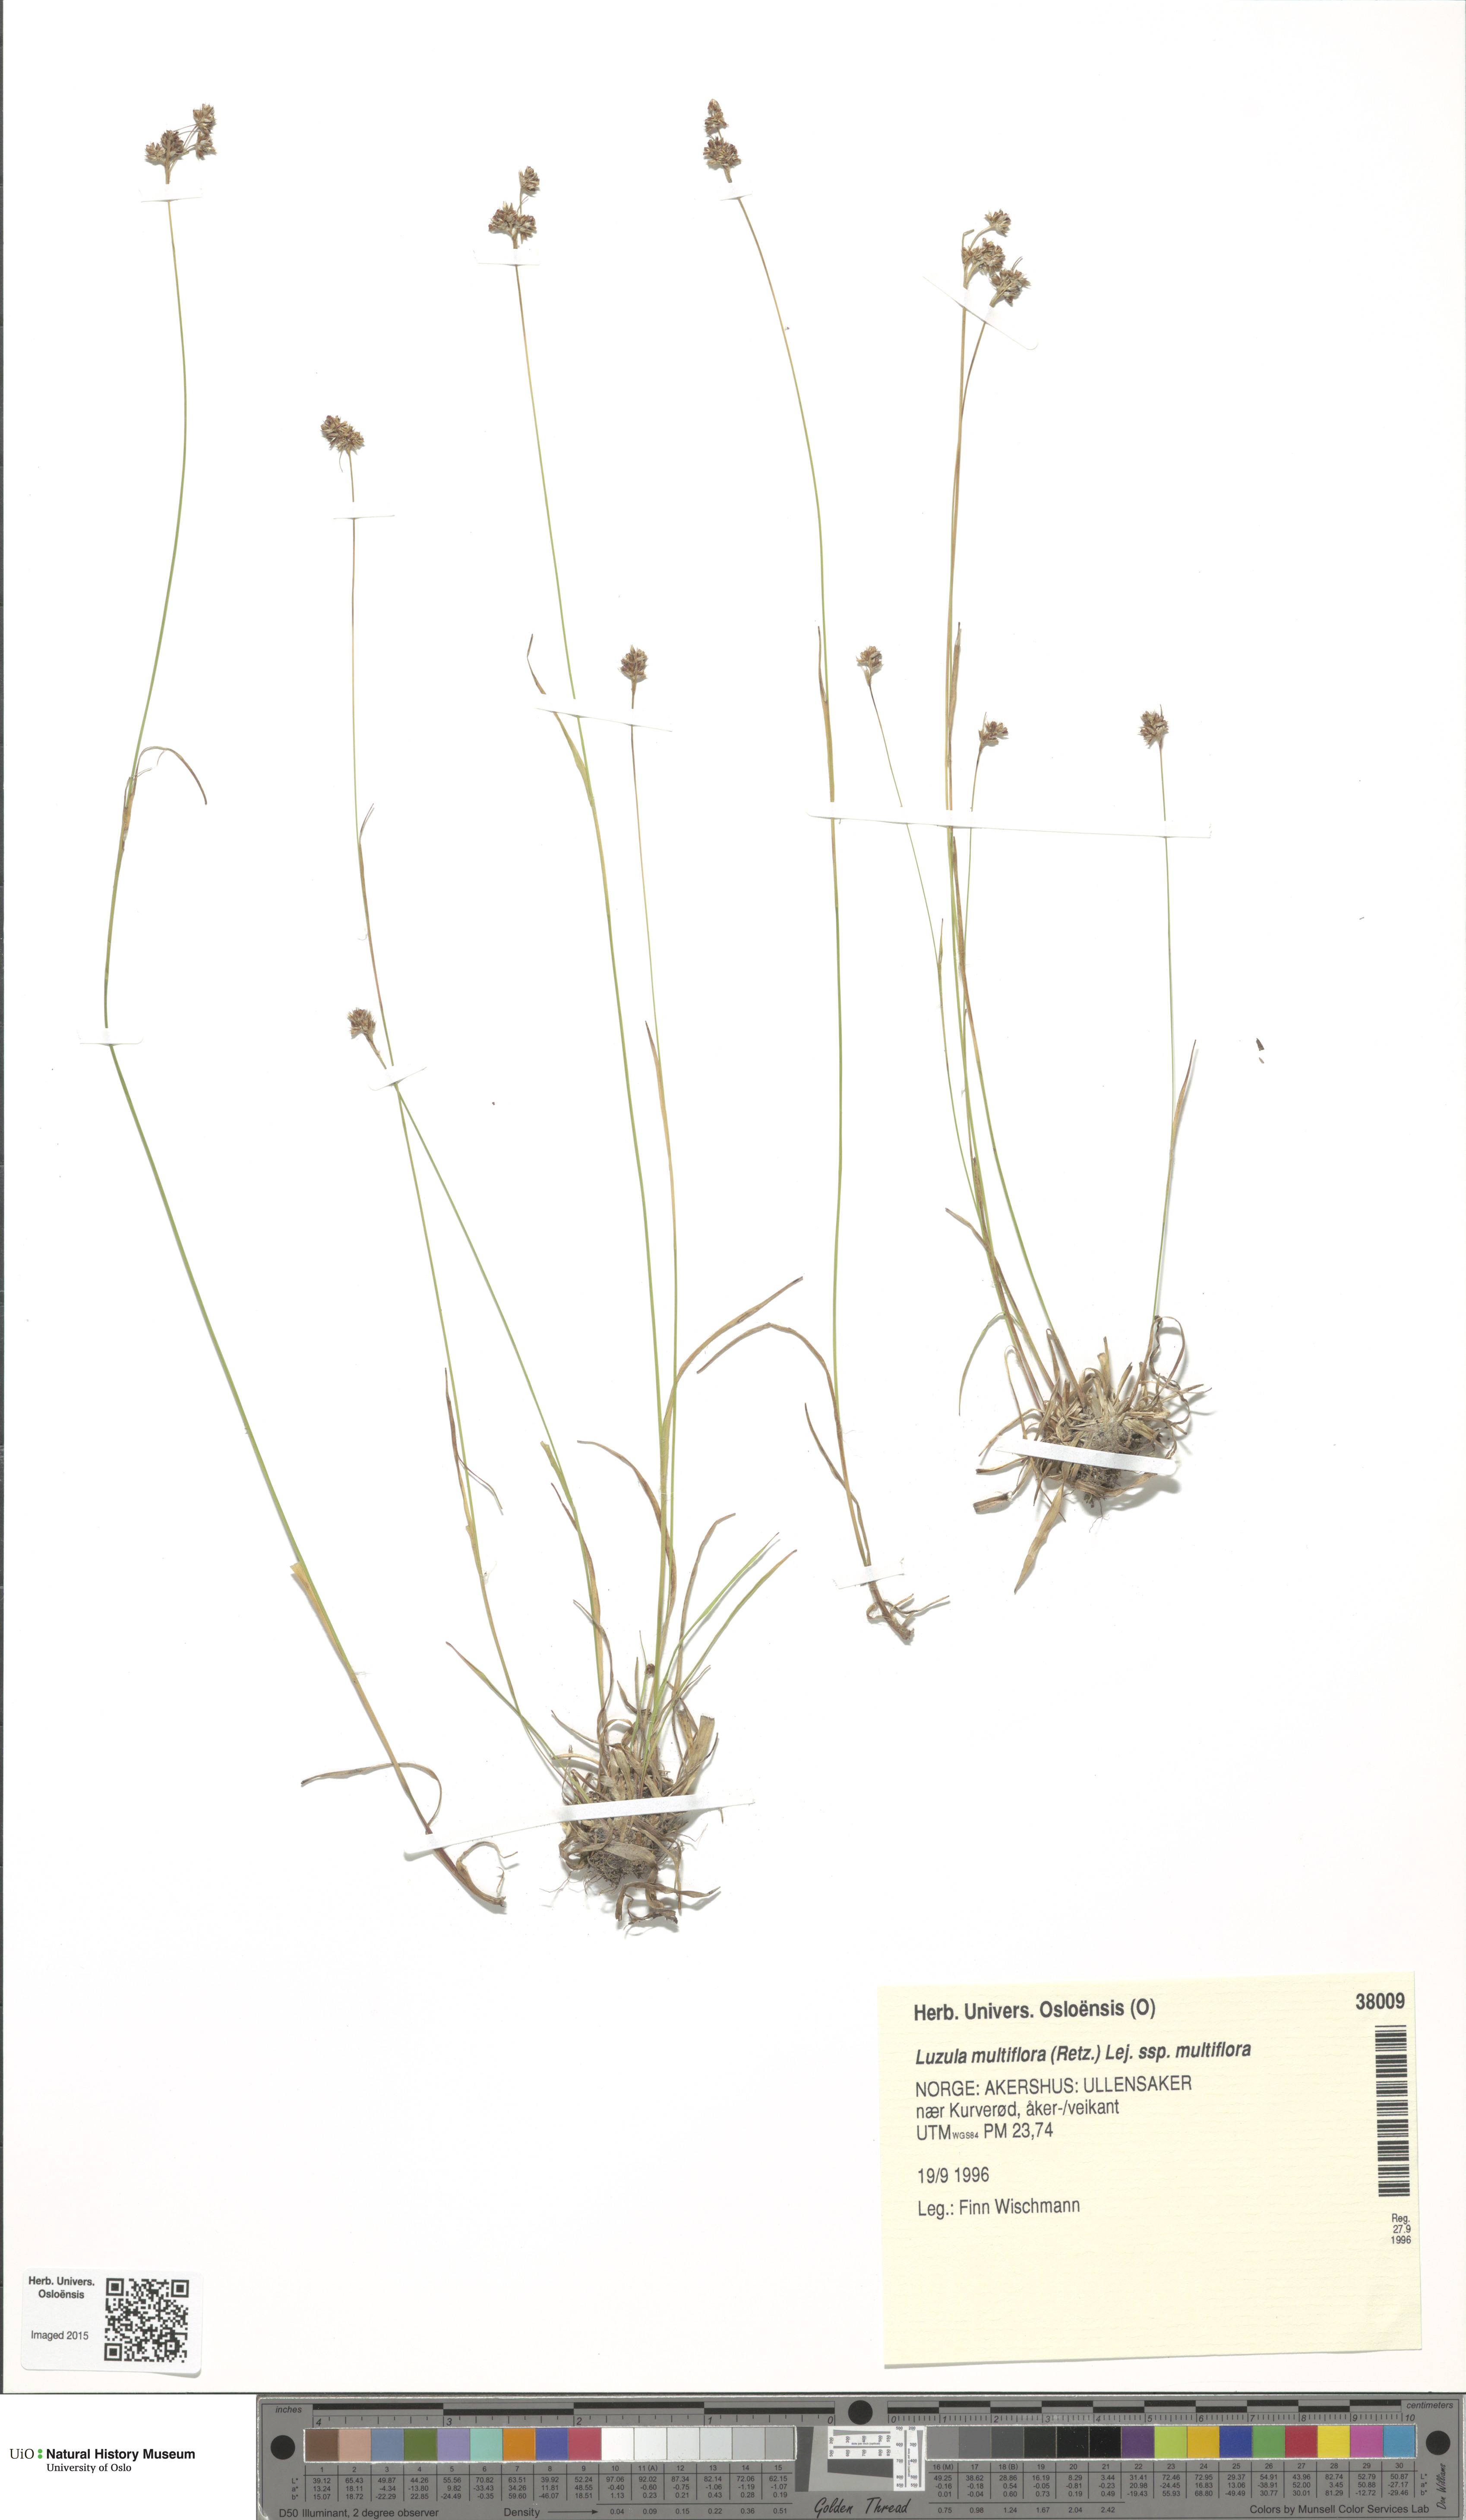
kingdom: Plantae
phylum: Tracheophyta
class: Liliopsida
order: Poales
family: Juncaceae
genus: Luzula
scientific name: Luzula multiflora
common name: Heath wood-rush
